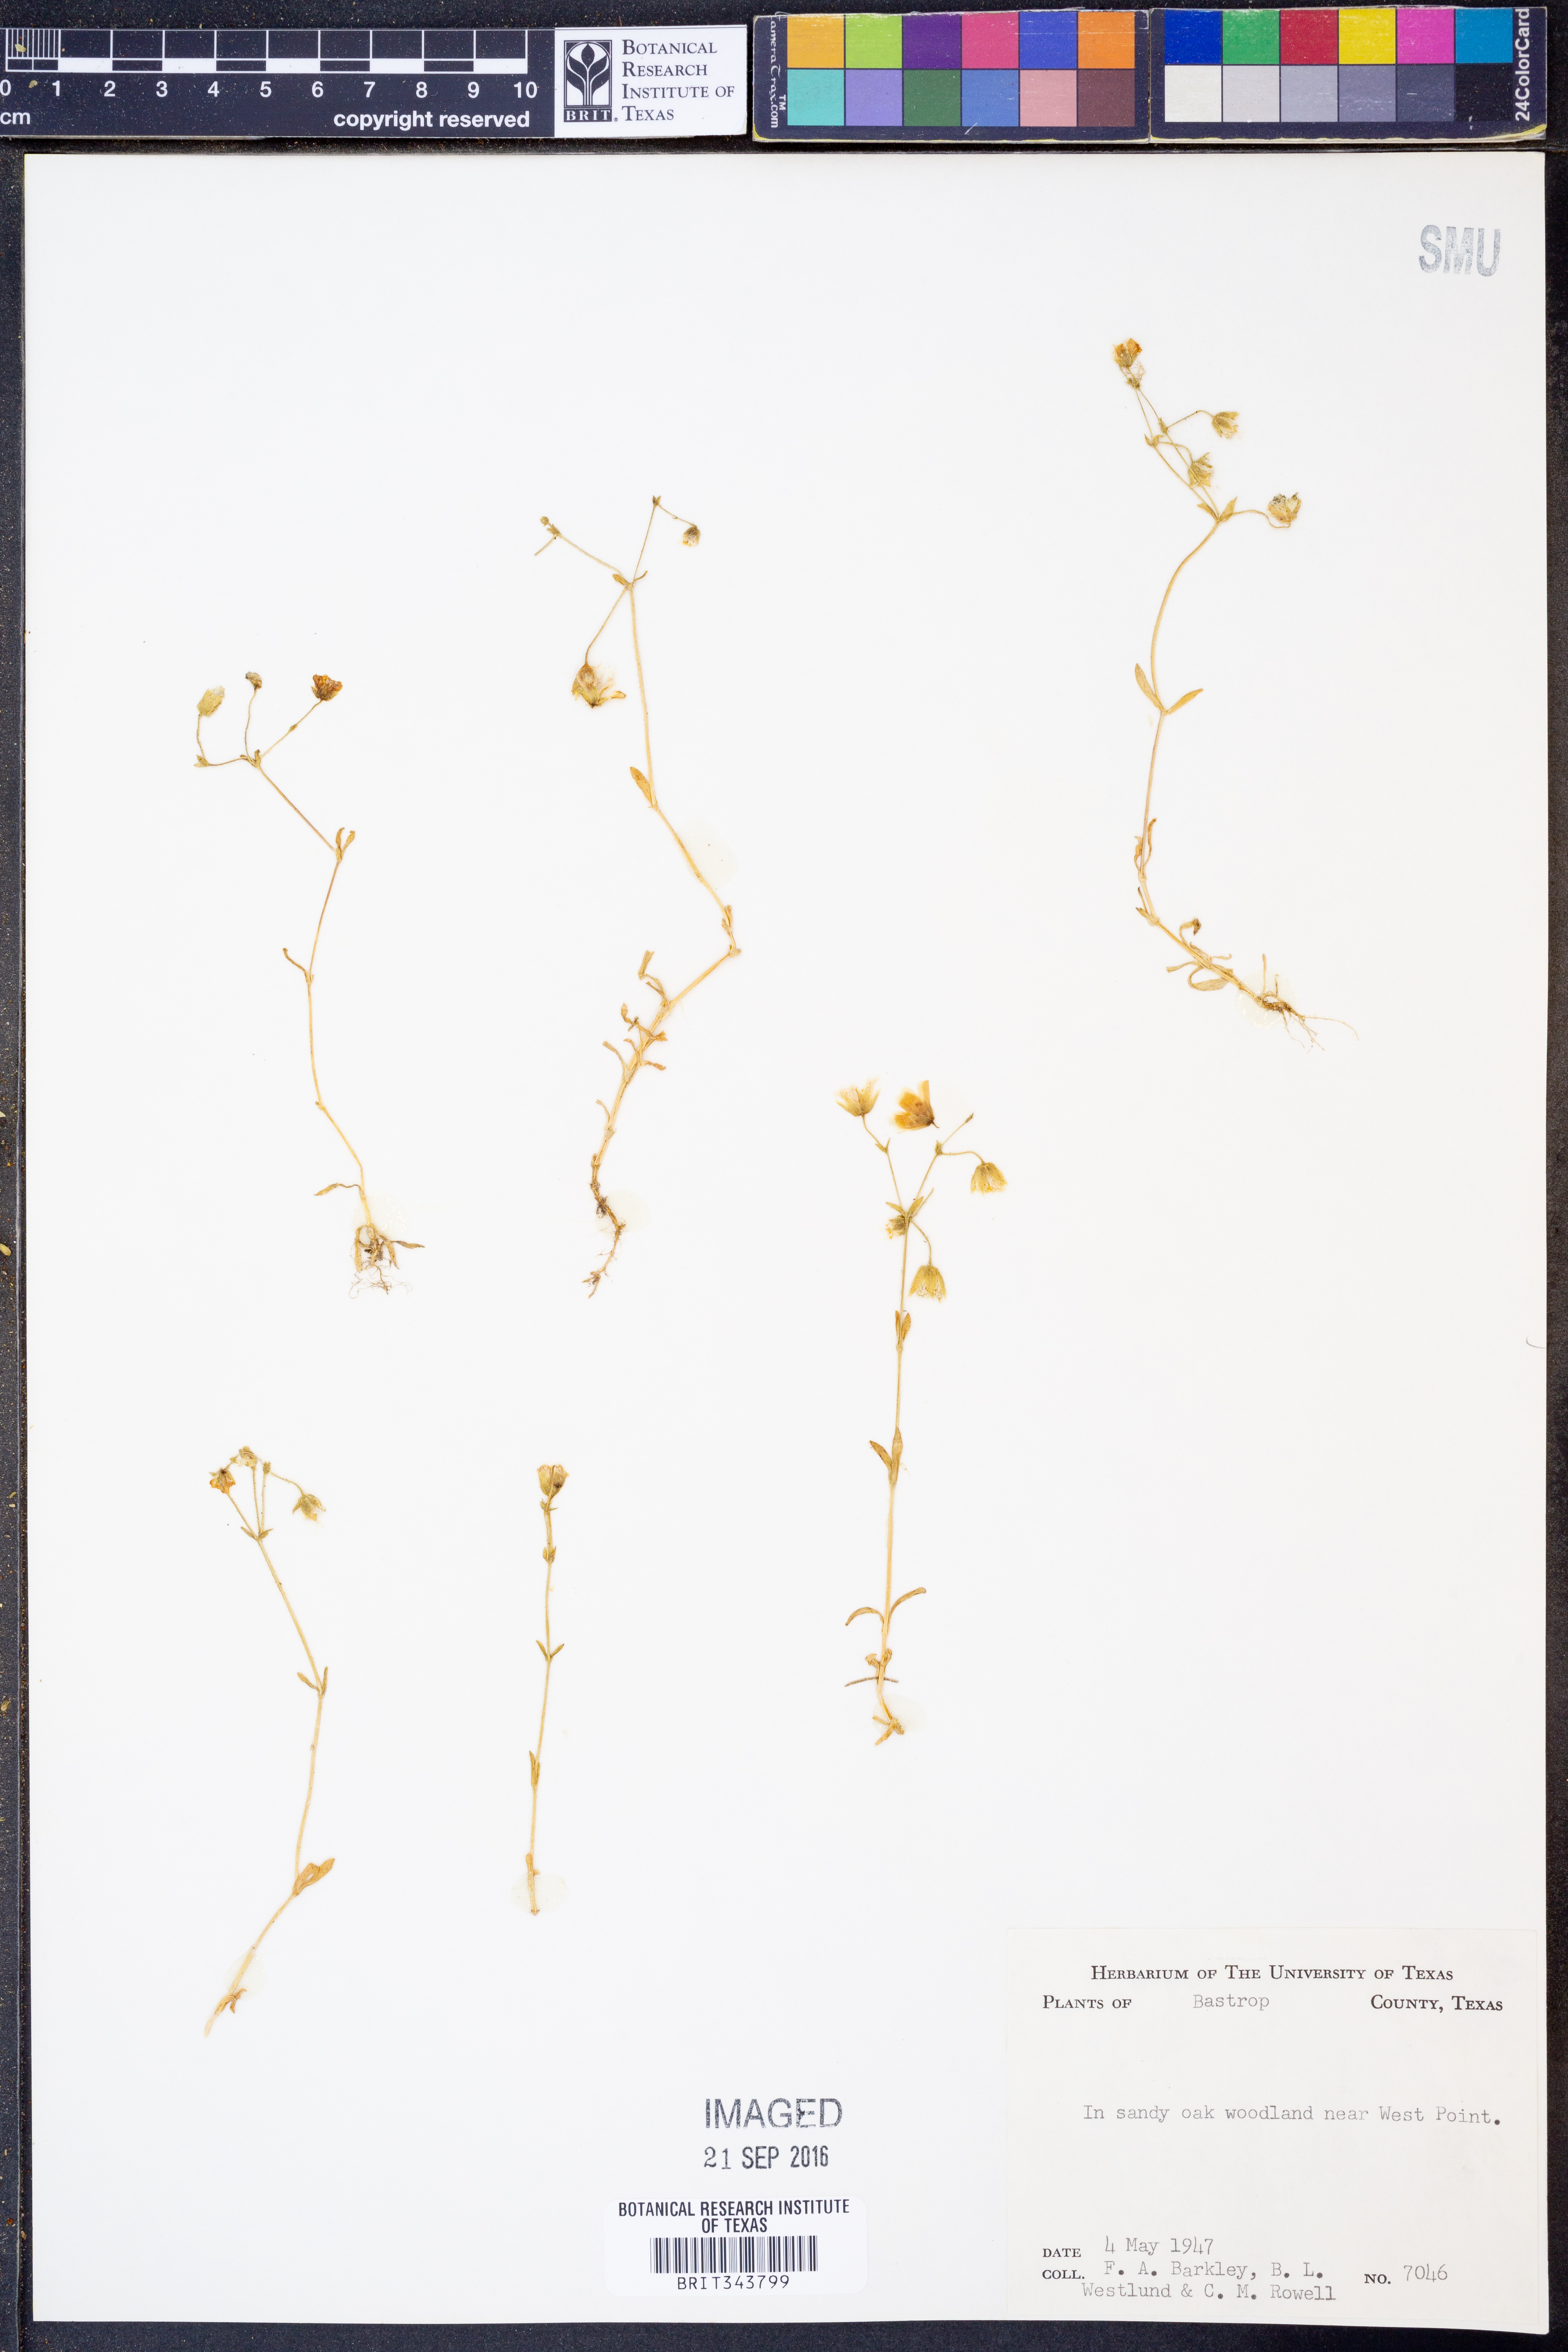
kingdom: Plantae
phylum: Tracheophyta
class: Magnoliopsida
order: Caryophyllales
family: Caryophyllaceae
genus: Geocarpon
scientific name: Geocarpon nuttallii
